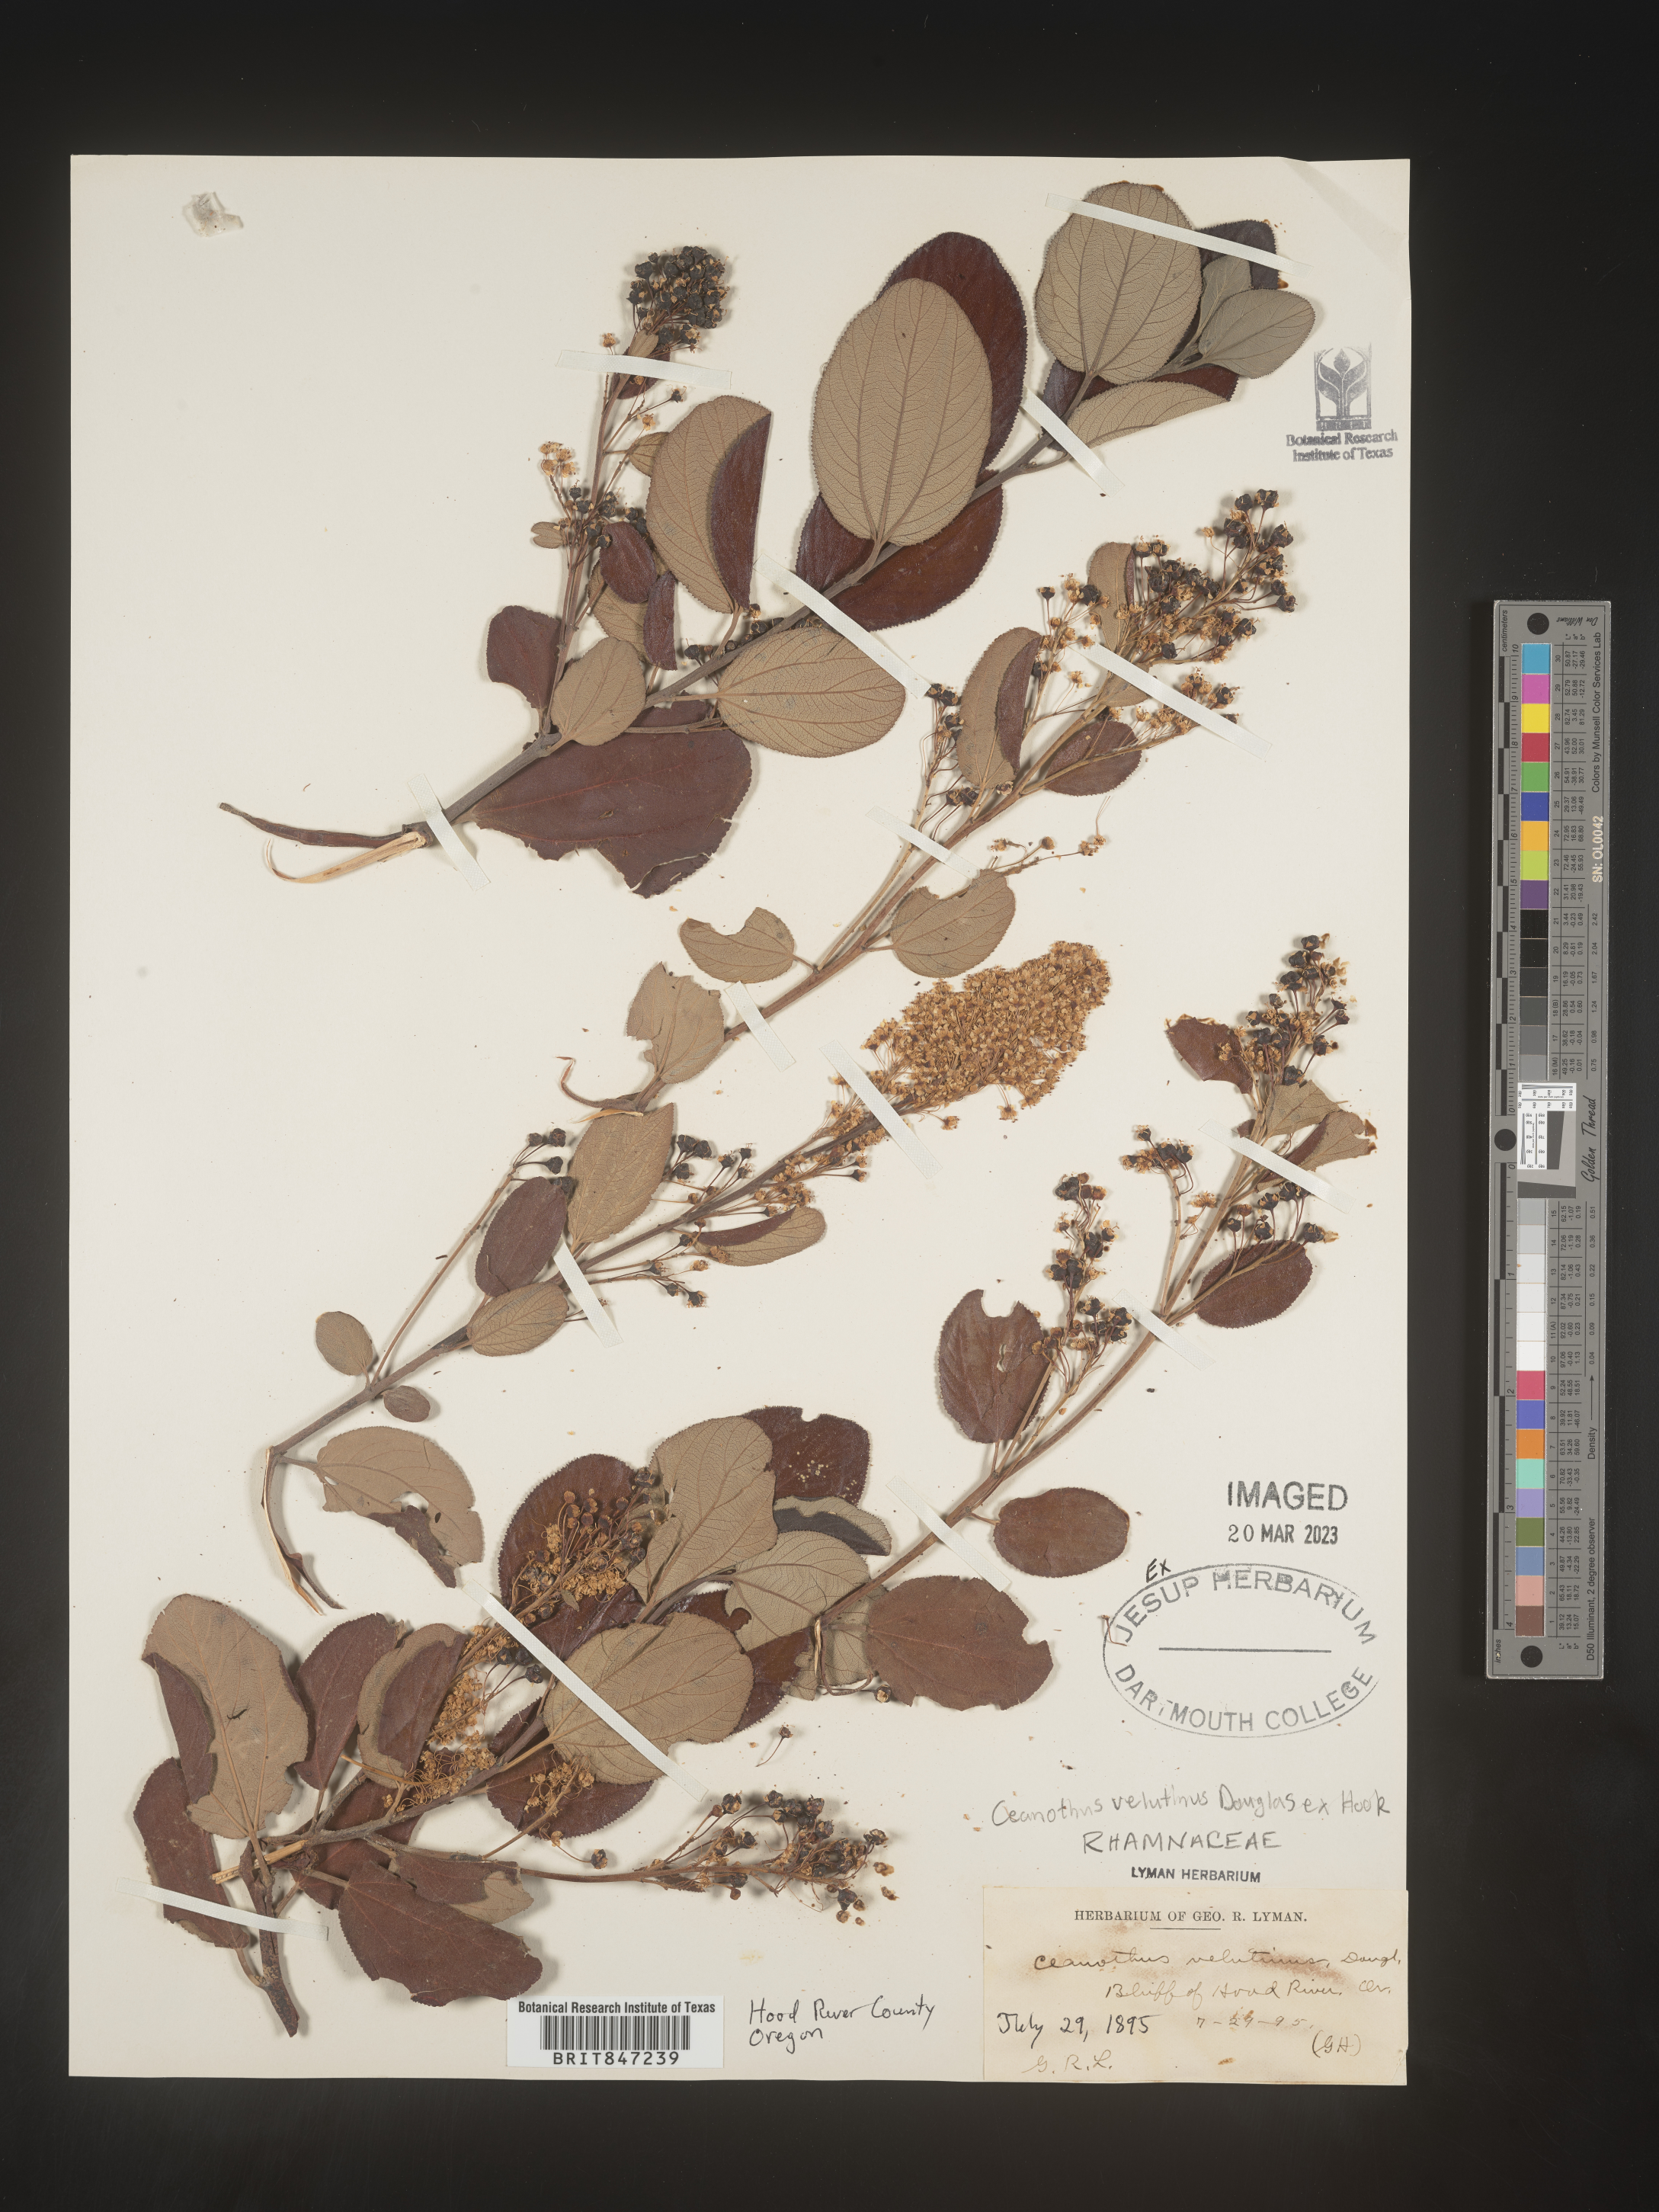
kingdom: Plantae
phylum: Tracheophyta
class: Magnoliopsida
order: Rosales
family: Rhamnaceae
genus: Ceanothus
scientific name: Ceanothus velutinus
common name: Snowbrush
